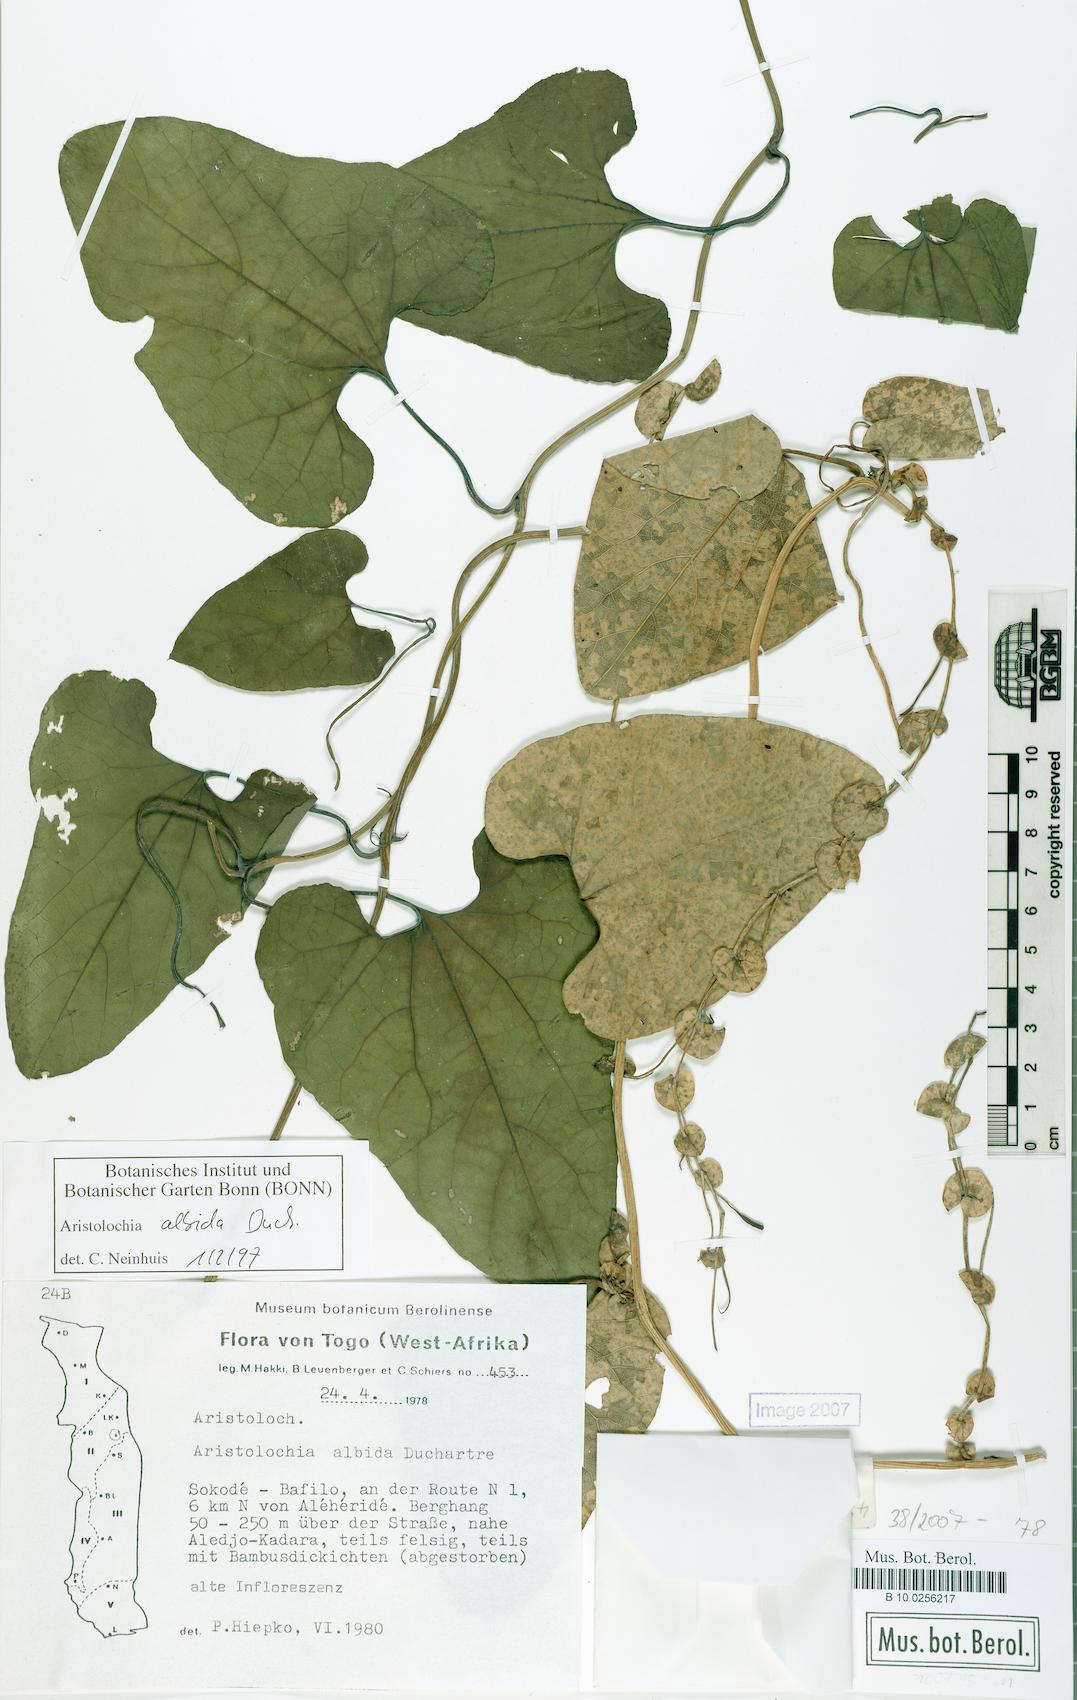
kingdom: Plantae
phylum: Tracheophyta
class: Magnoliopsida
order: Piperales
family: Aristolochiaceae
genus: Aristolochia
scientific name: Aristolochia albida
